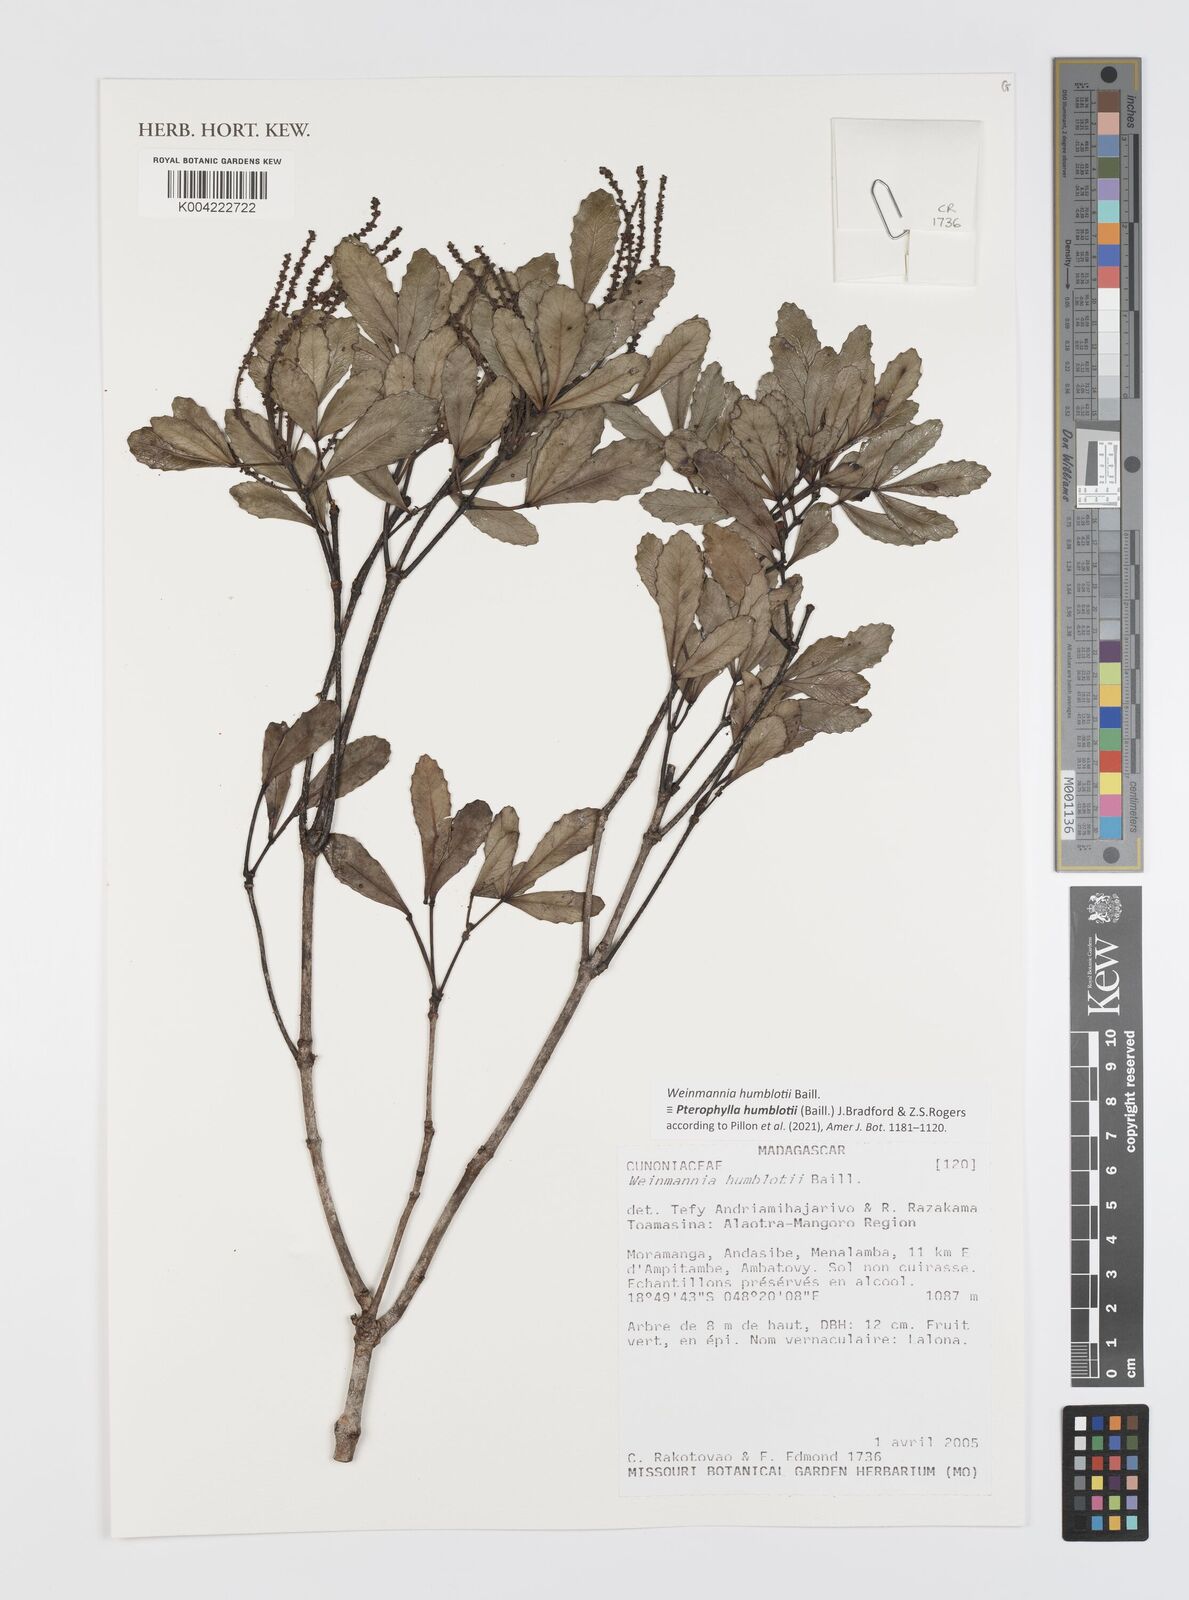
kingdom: Plantae
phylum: Tracheophyta
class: Magnoliopsida
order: Oxalidales
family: Cunoniaceae
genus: Pterophylla
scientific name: Pterophylla
